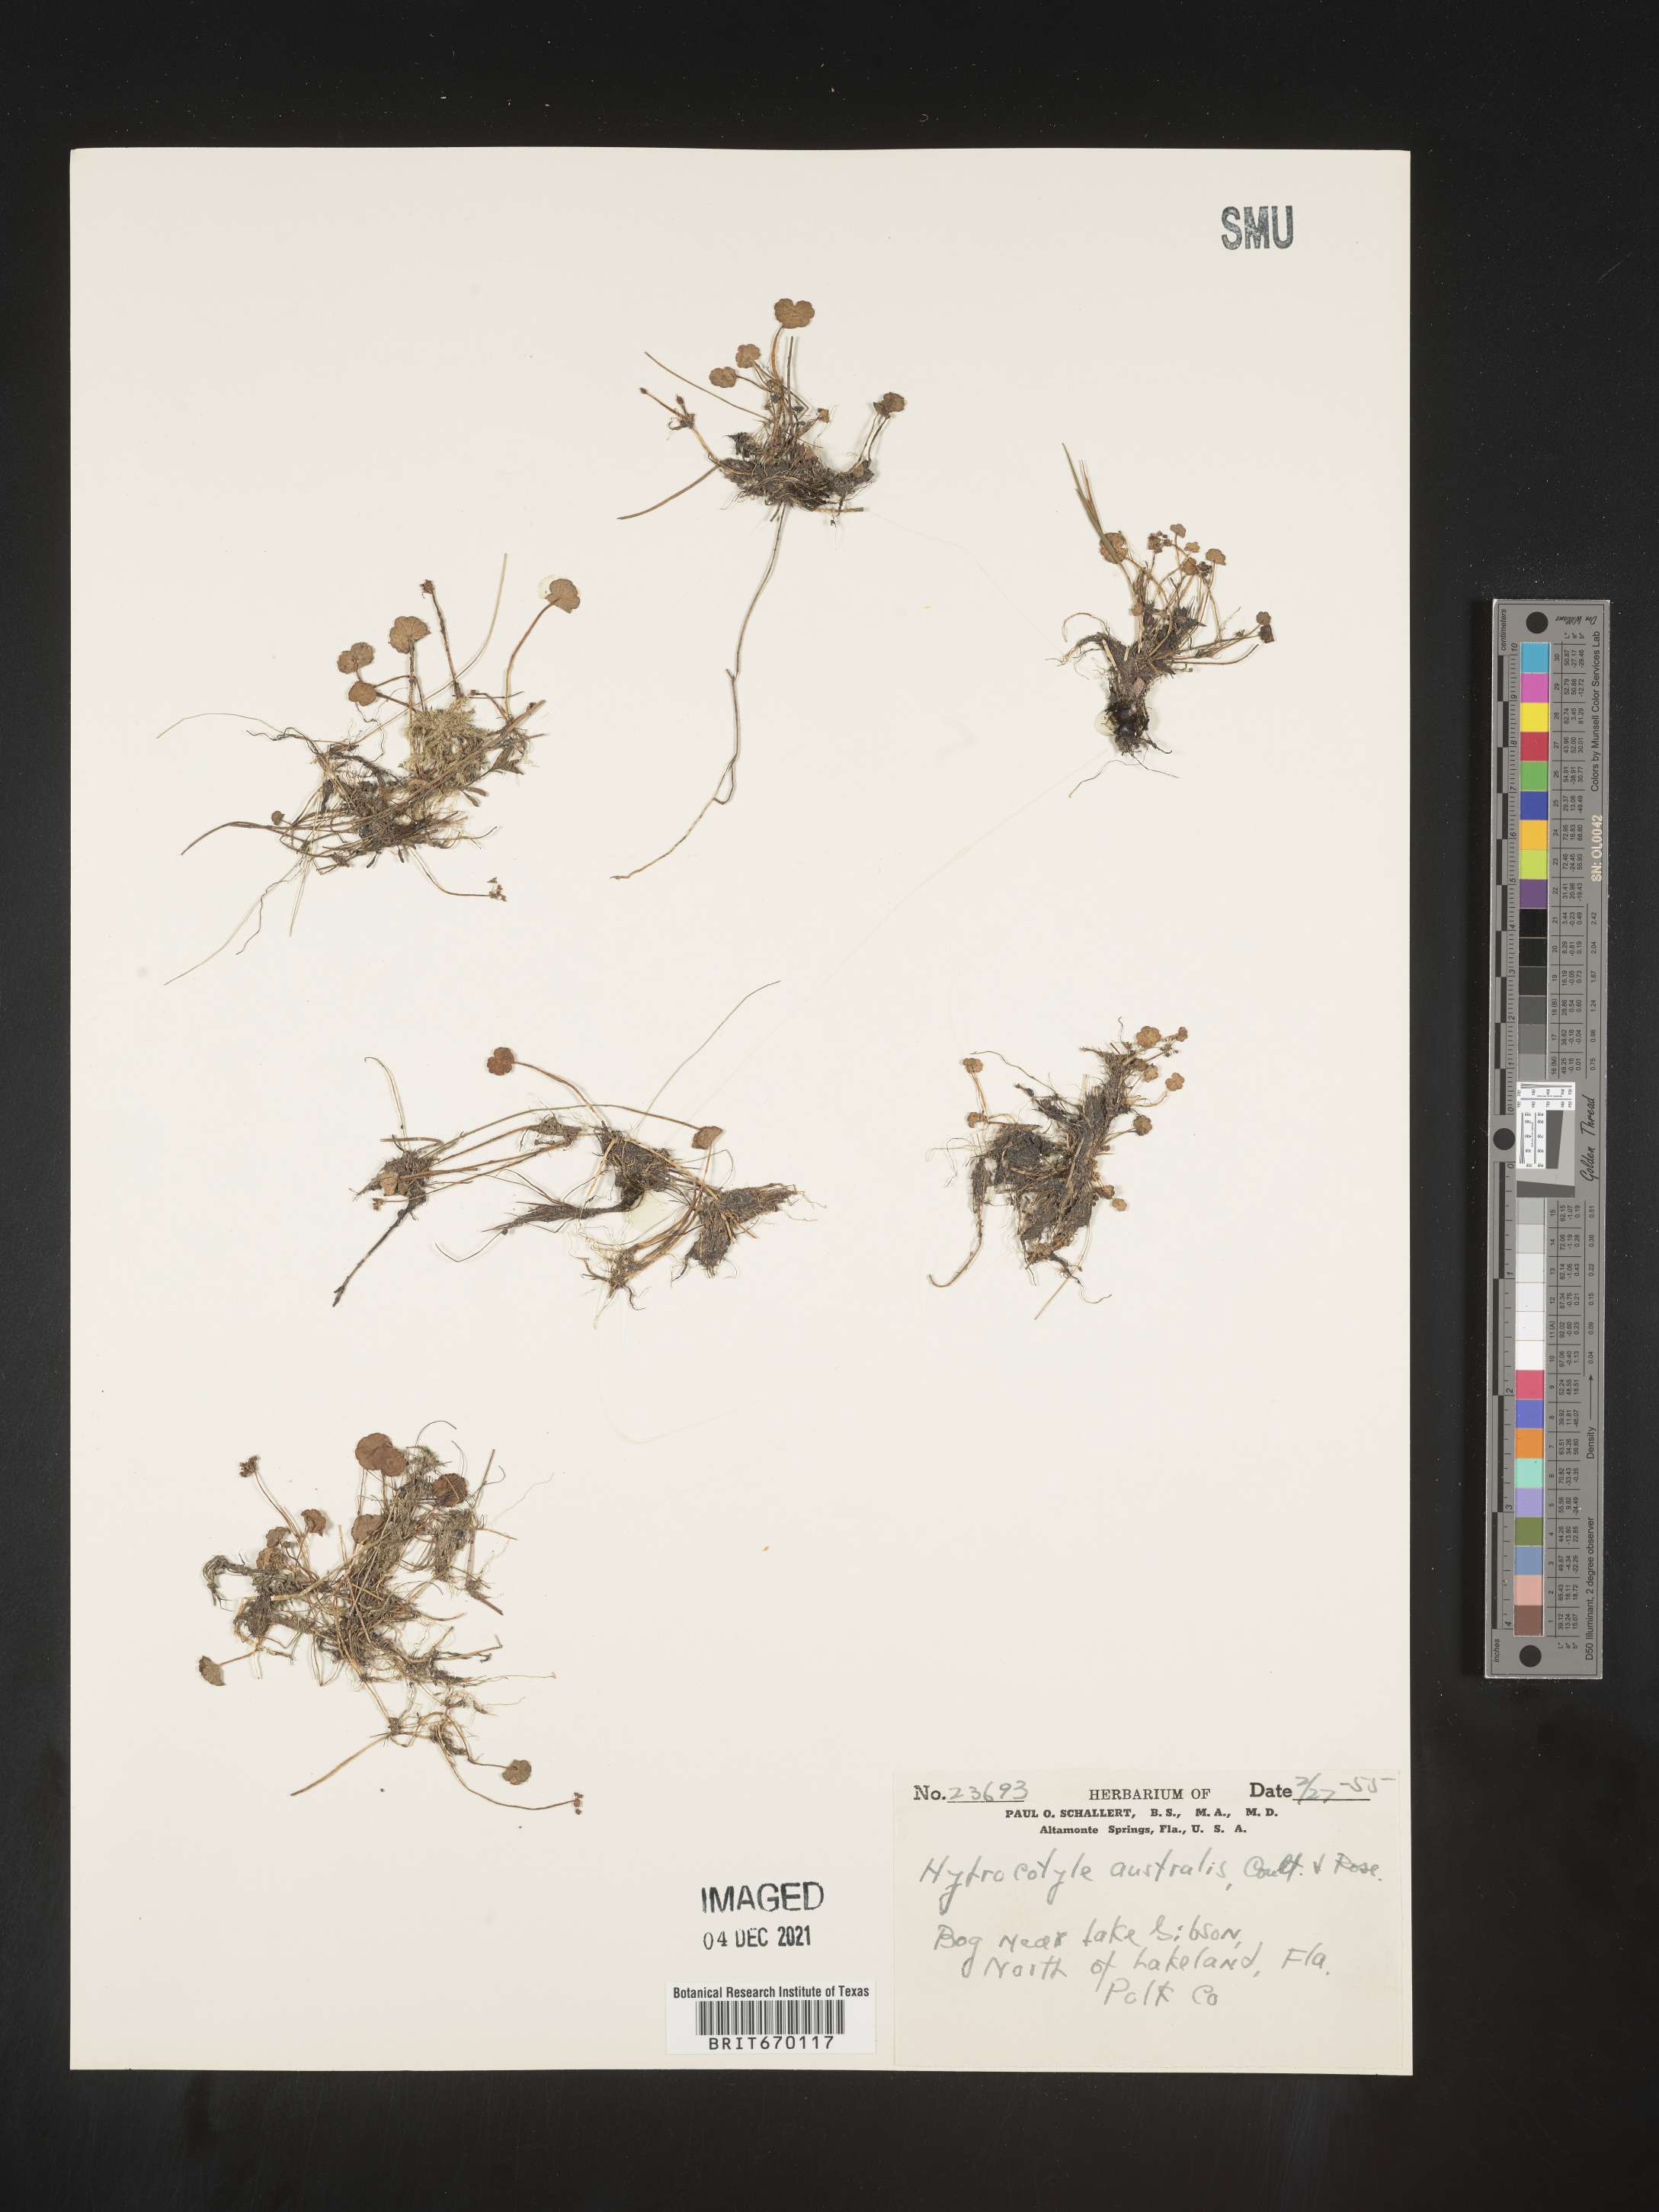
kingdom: Plantae
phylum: Tracheophyta
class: Magnoliopsida
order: Apiales
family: Araliaceae
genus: Hydrocotyle
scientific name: Hydrocotyle sibthorpioides
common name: Lawn marshpennywort
